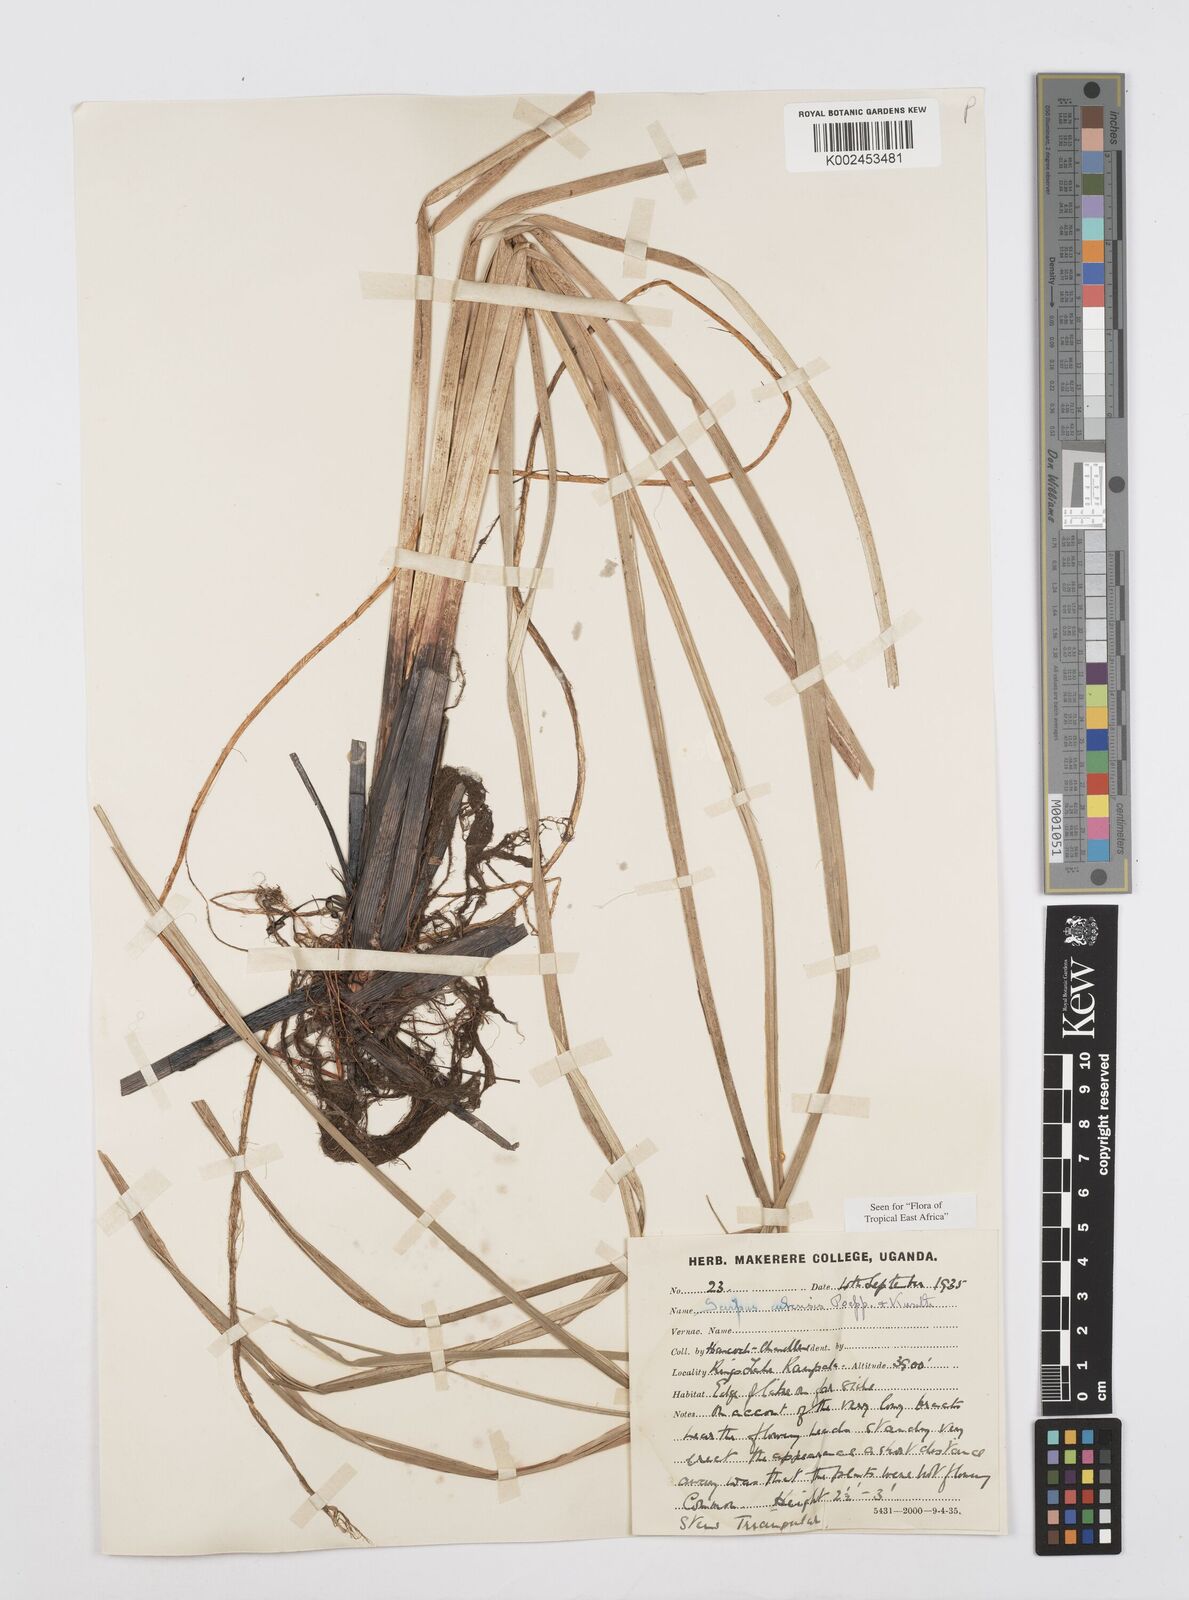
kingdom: Plantae
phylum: Tracheophyta
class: Liliopsida
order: Poales
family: Cyperaceae
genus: Cyperus
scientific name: Cyperus elegans
